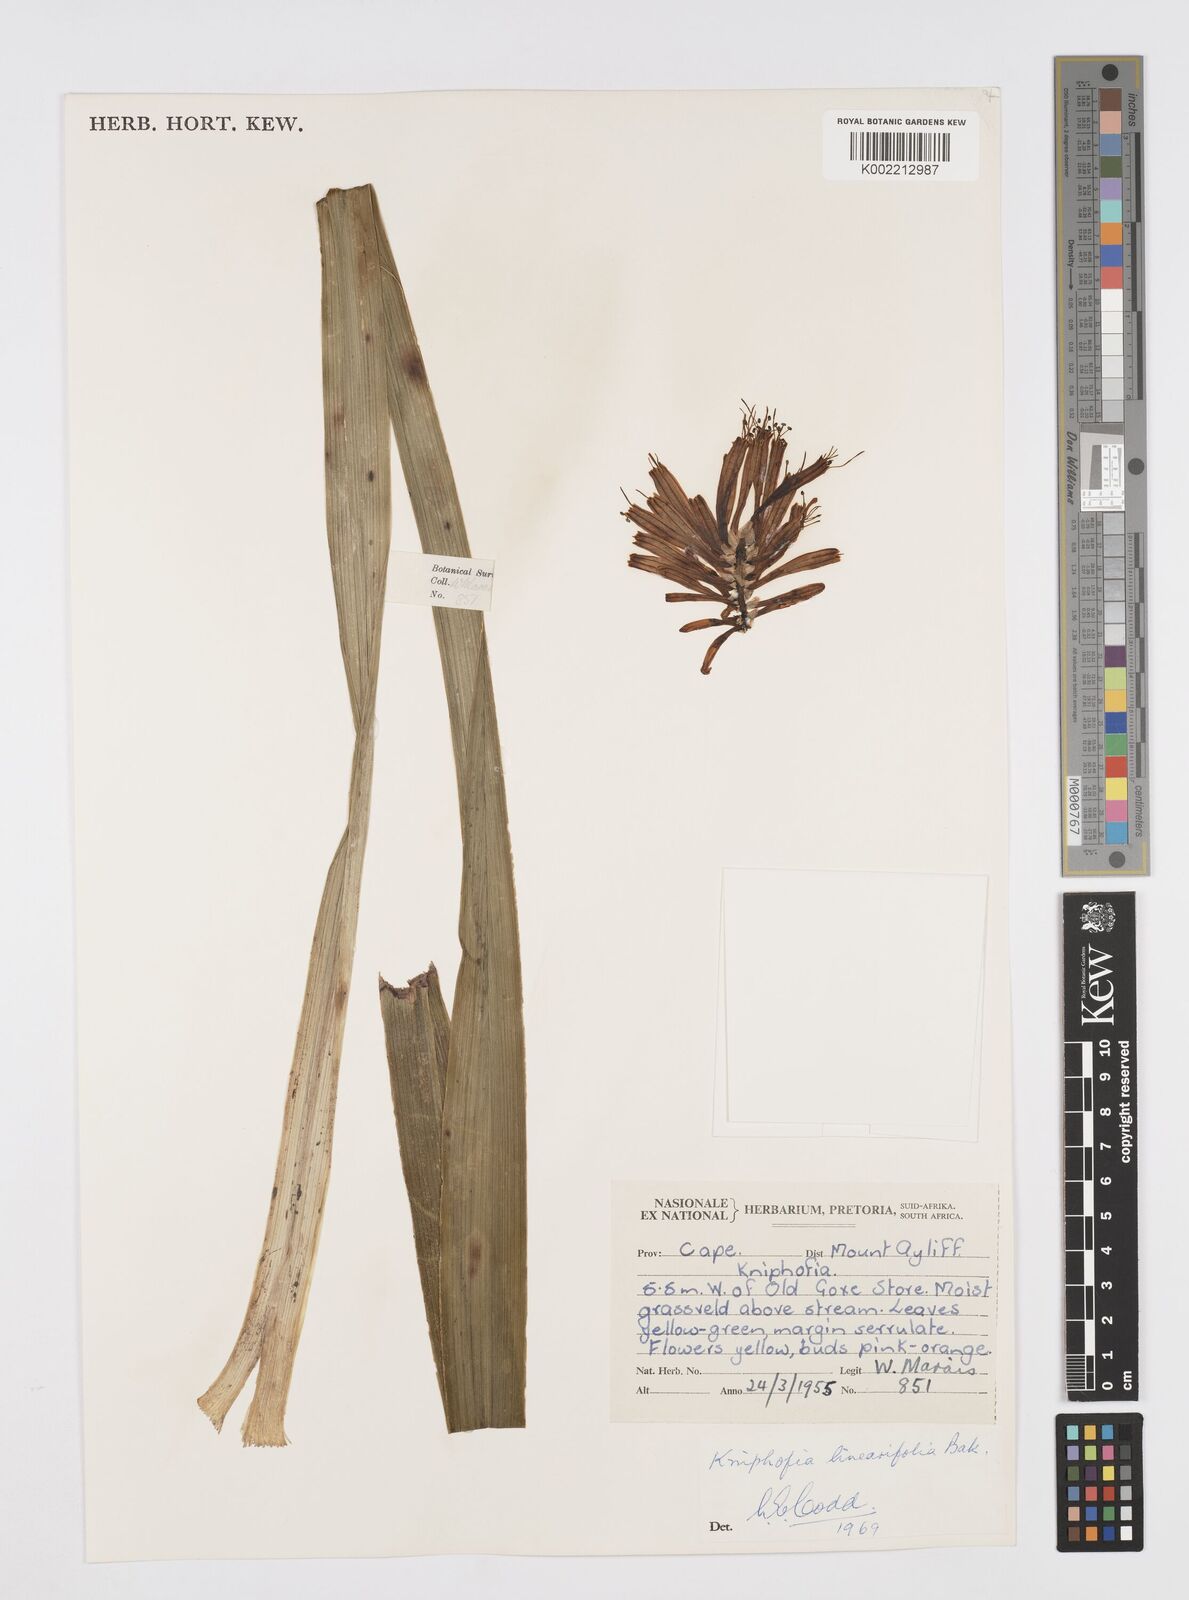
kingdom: Plantae
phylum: Tracheophyta
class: Liliopsida
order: Asparagales
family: Asphodelaceae
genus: Kniphofia
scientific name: Kniphofia linearifolia
